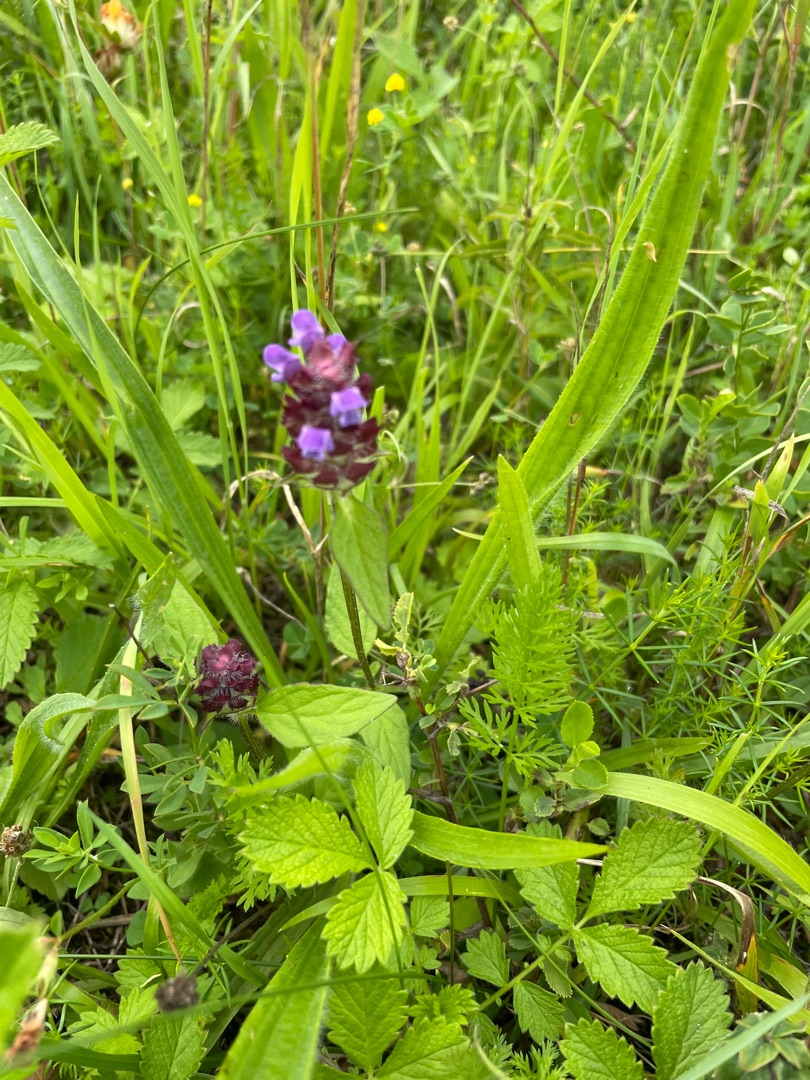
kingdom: Plantae
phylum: Tracheophyta
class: Magnoliopsida
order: Lamiales
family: Lamiaceae
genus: Prunella
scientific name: Prunella vulgaris
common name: Almindelig brunelle
